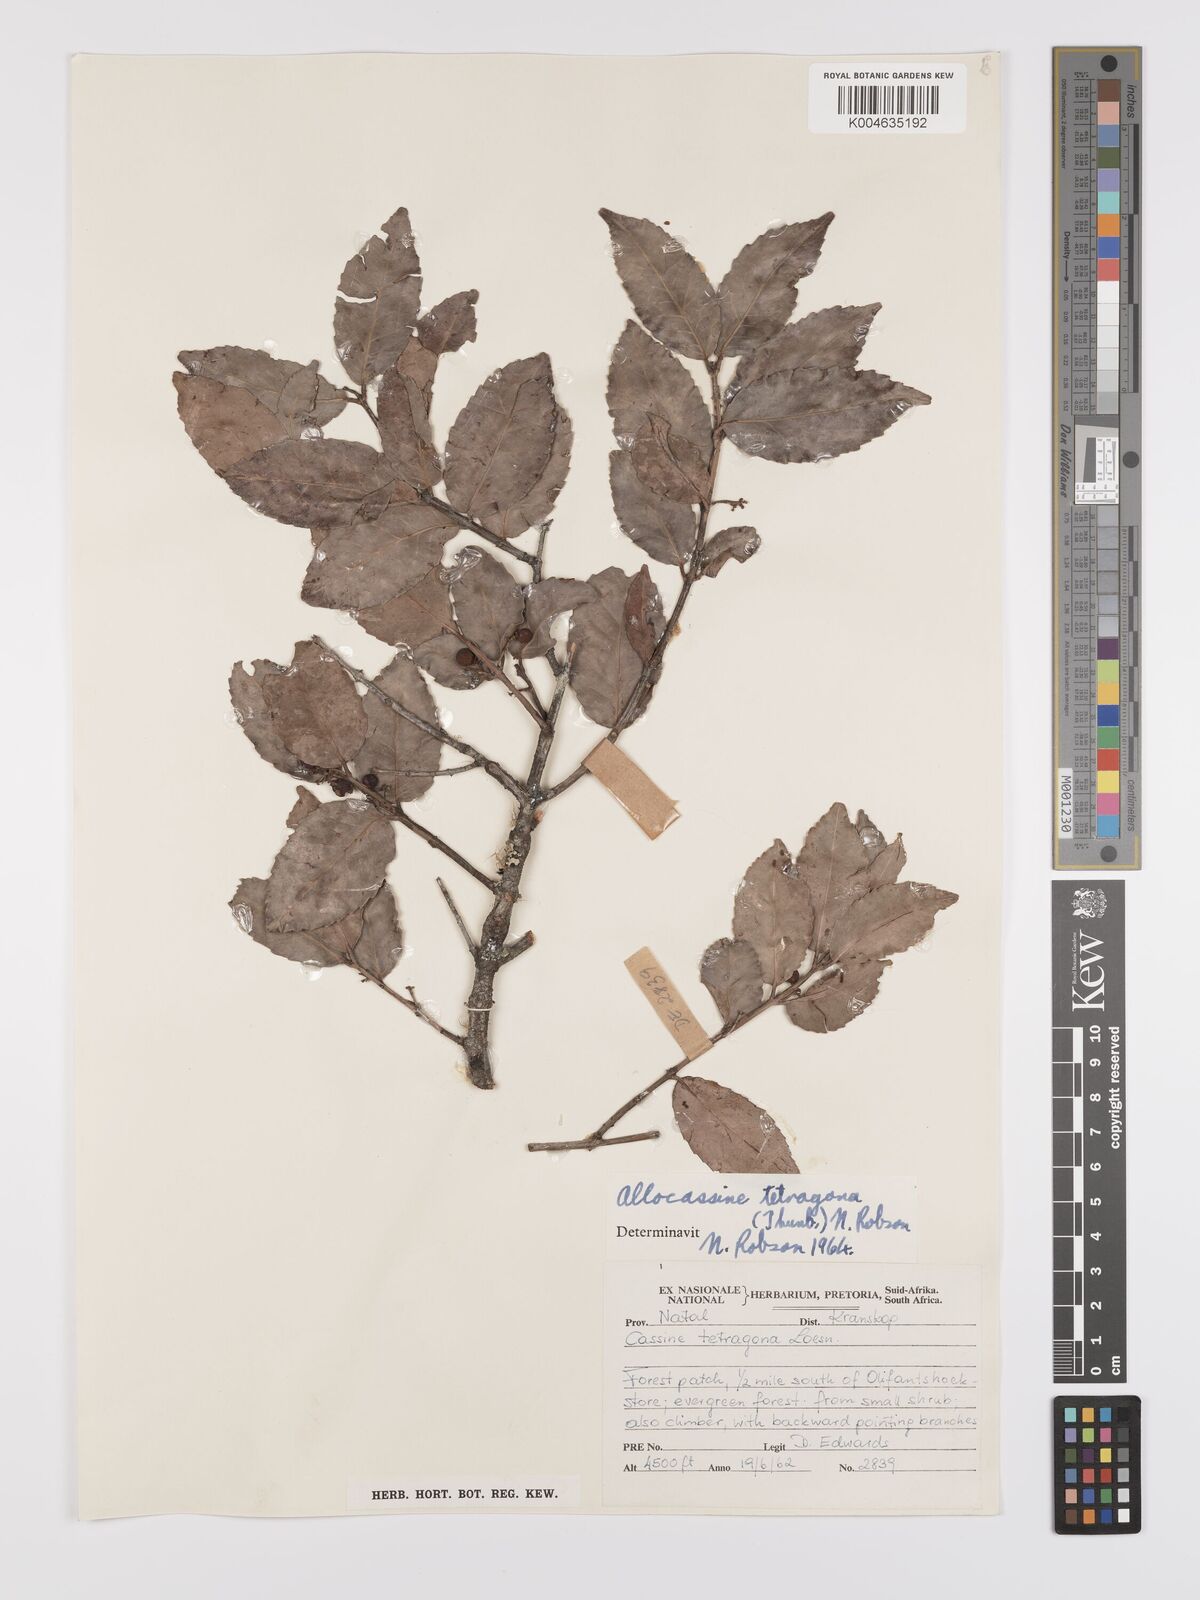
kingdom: Plantae
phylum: Tracheophyta
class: Magnoliopsida
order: Celastrales
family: Celastraceae
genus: Lauridia
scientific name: Lauridia tetragona
